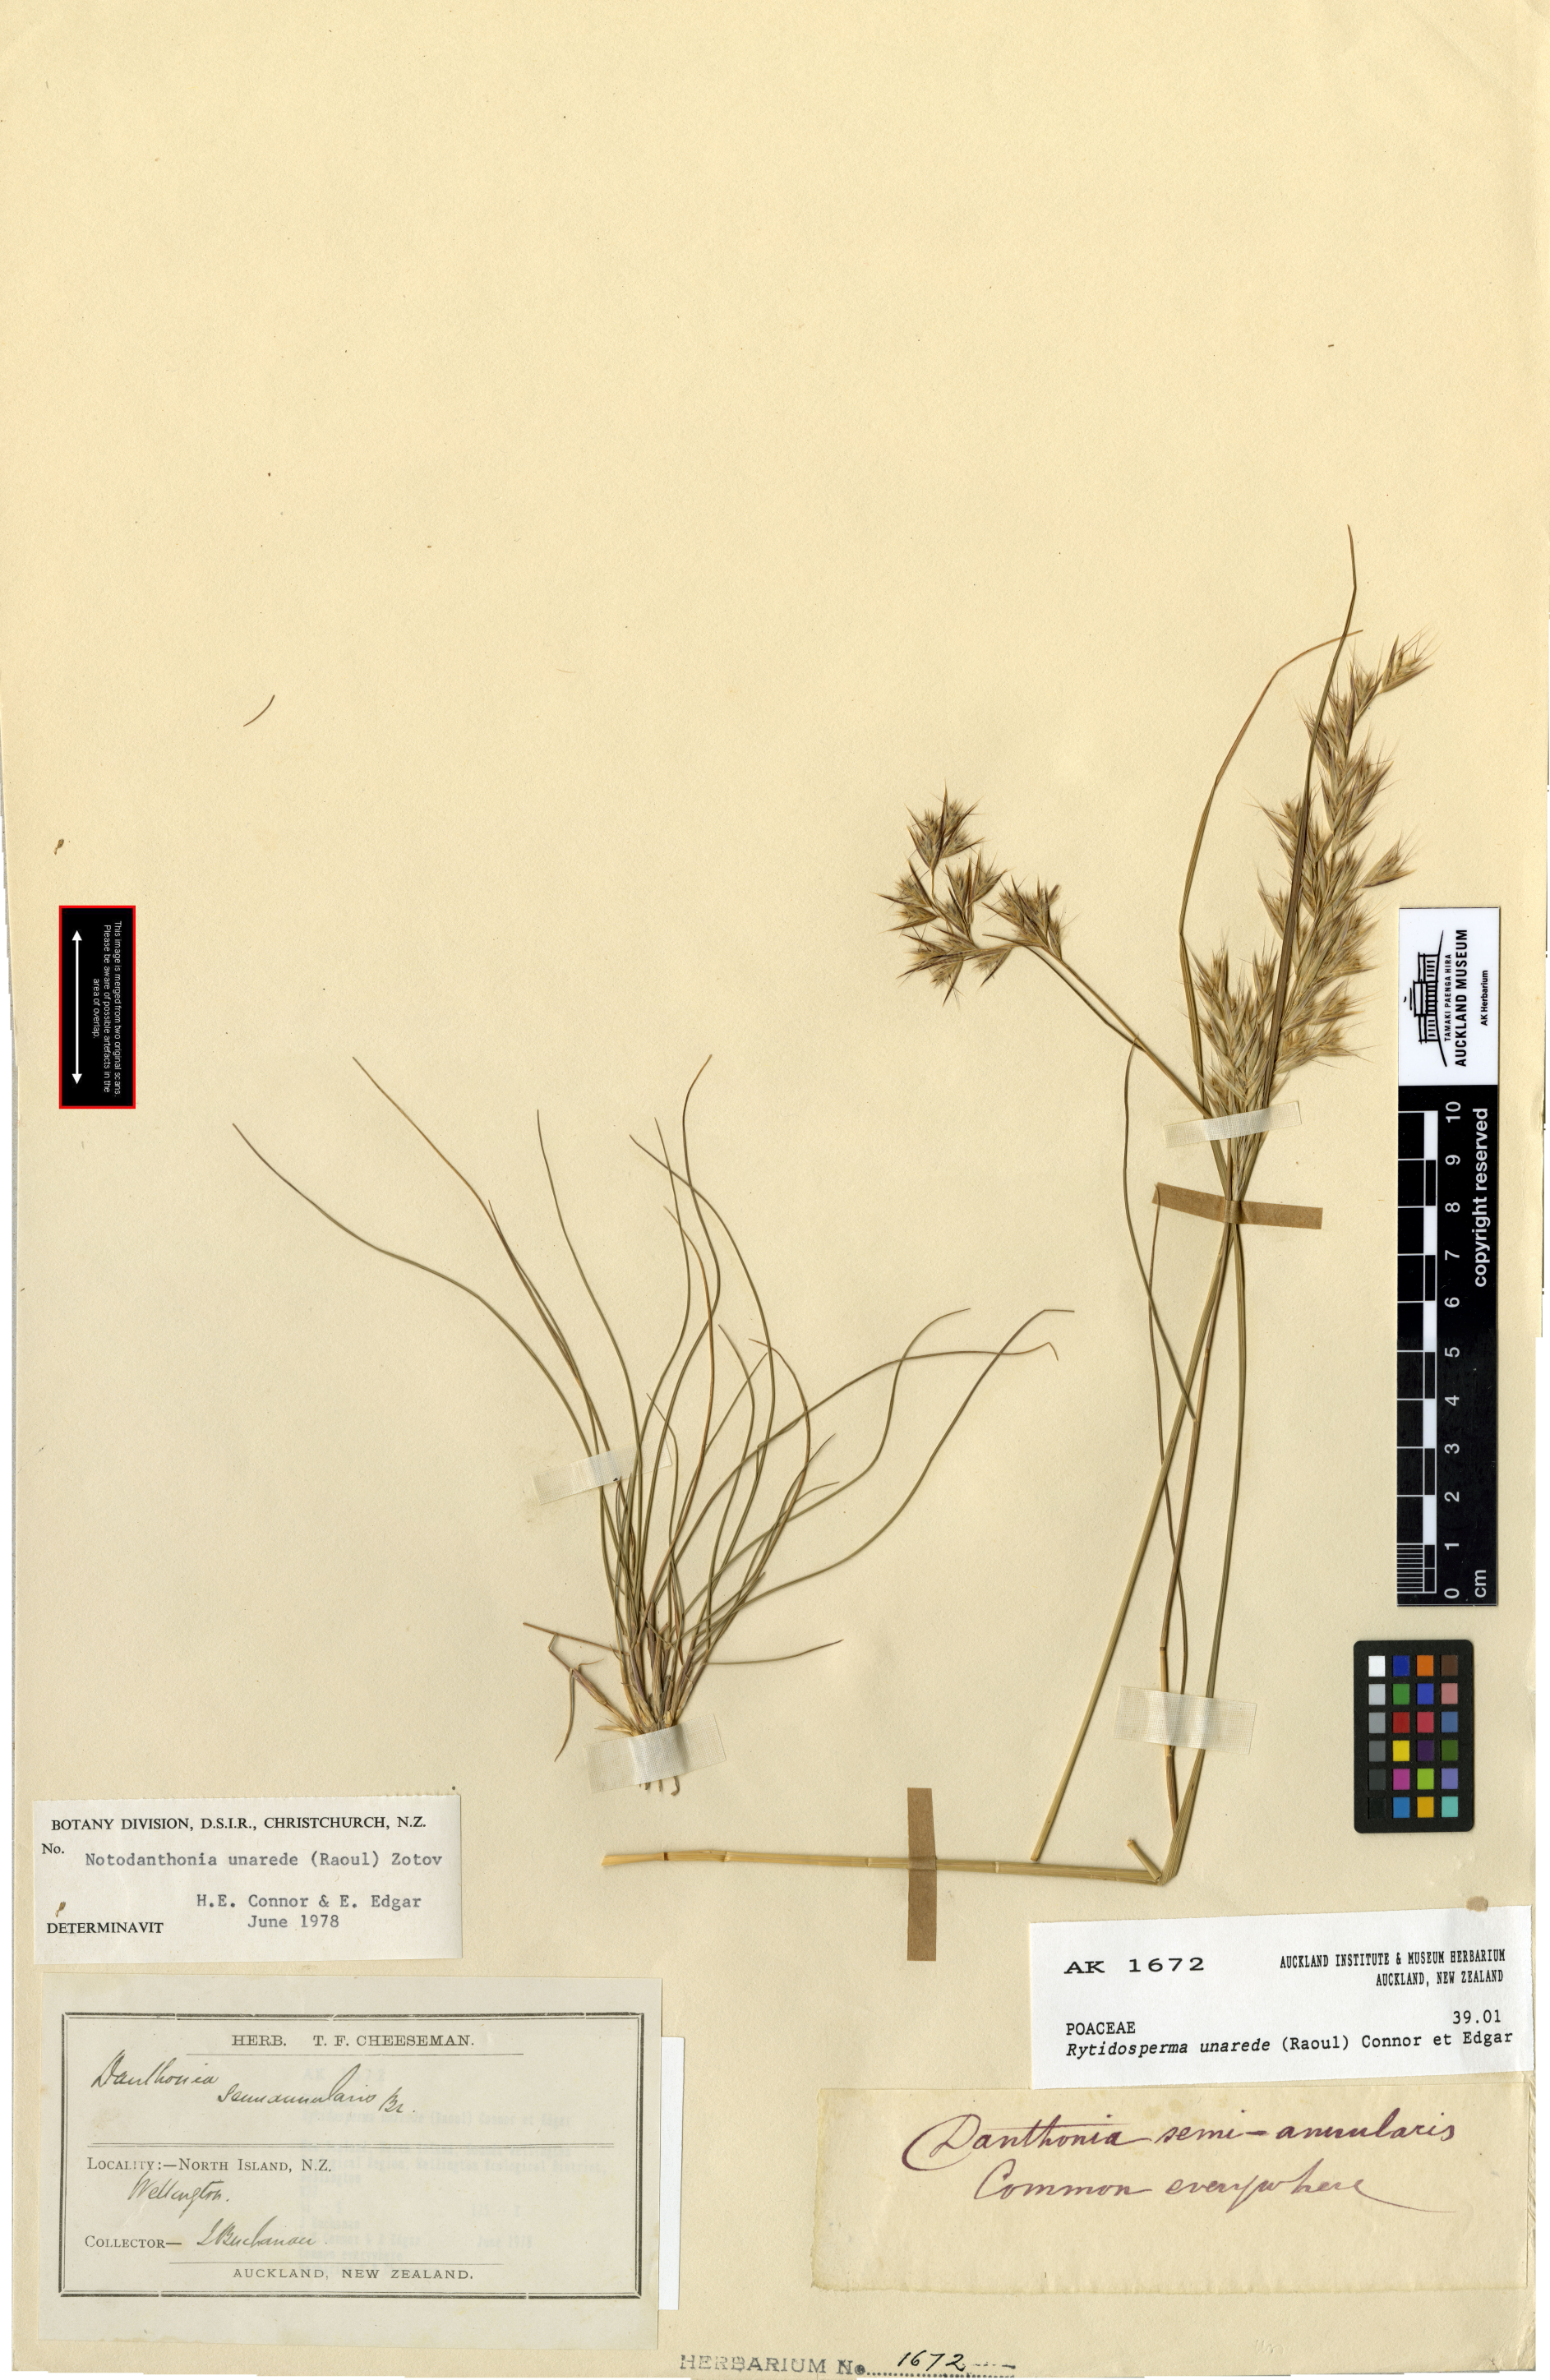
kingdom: Plantae
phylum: Tracheophyta
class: Liliopsida
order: Poales
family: Poaceae
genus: Rytidosperma
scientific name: Rytidosperma unarede
